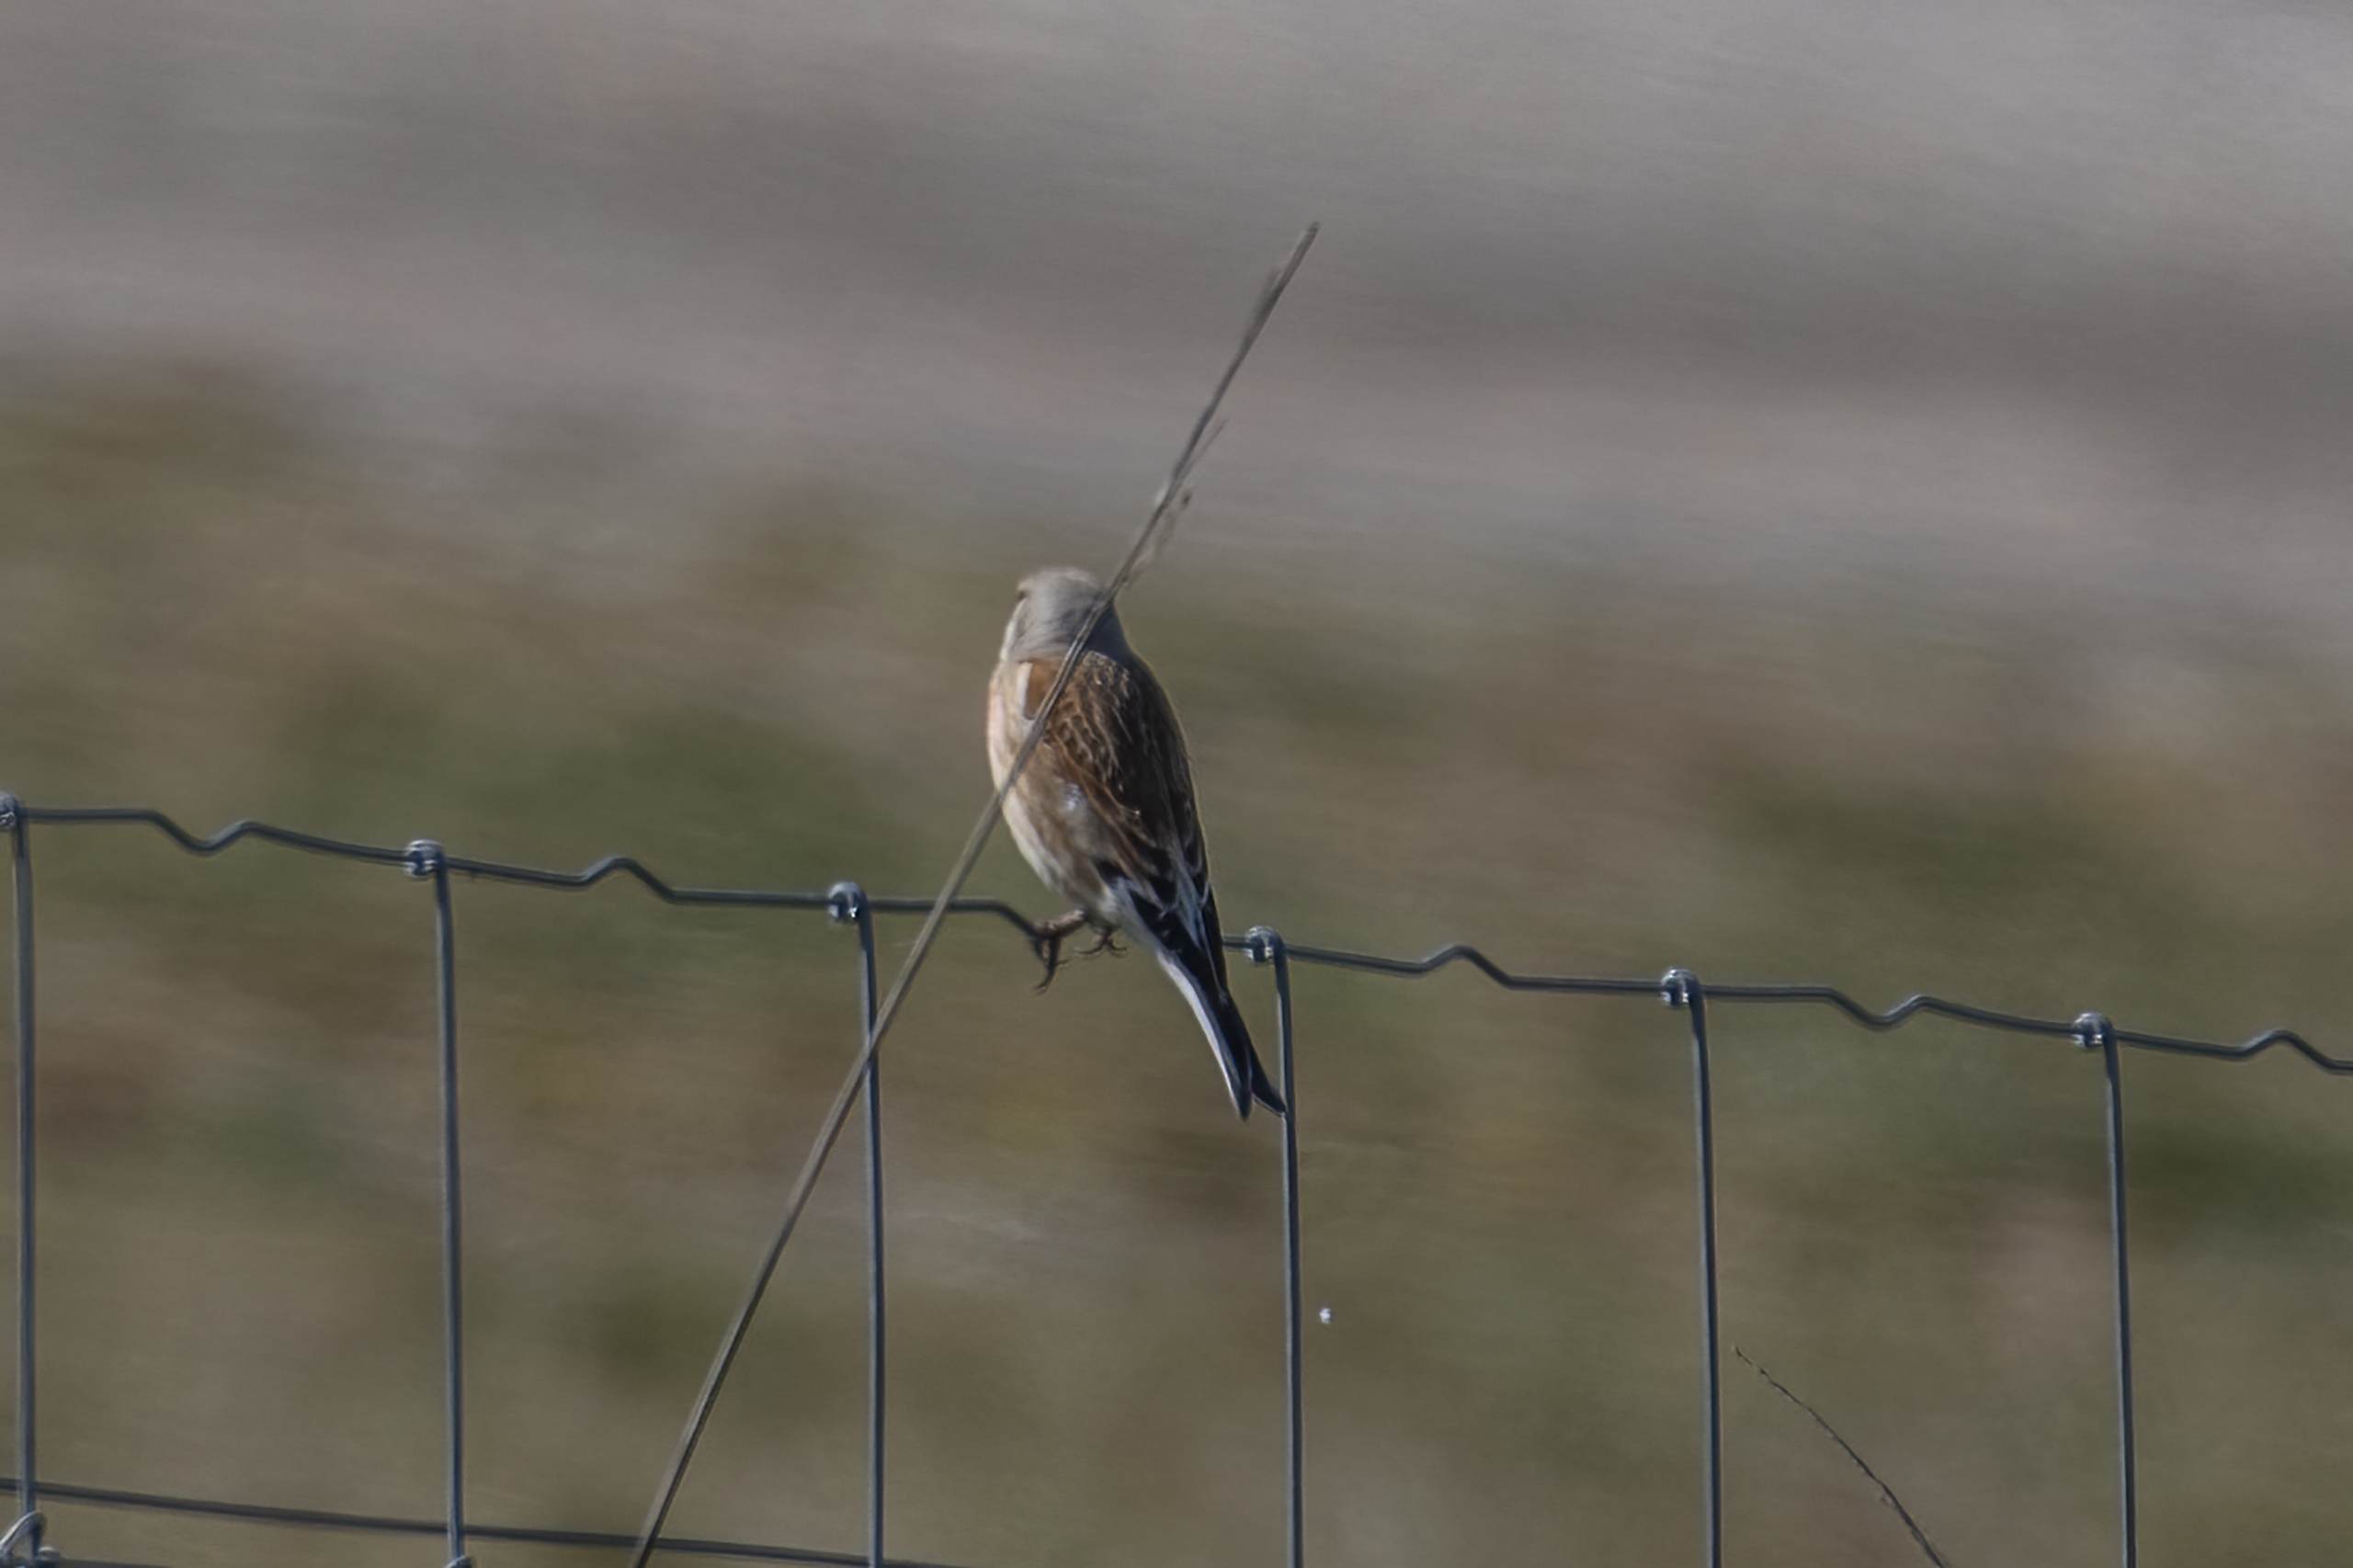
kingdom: Animalia
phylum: Chordata
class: Aves
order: Passeriformes
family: Fringillidae
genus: Linaria
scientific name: Linaria cannabina
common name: Tornirisk
